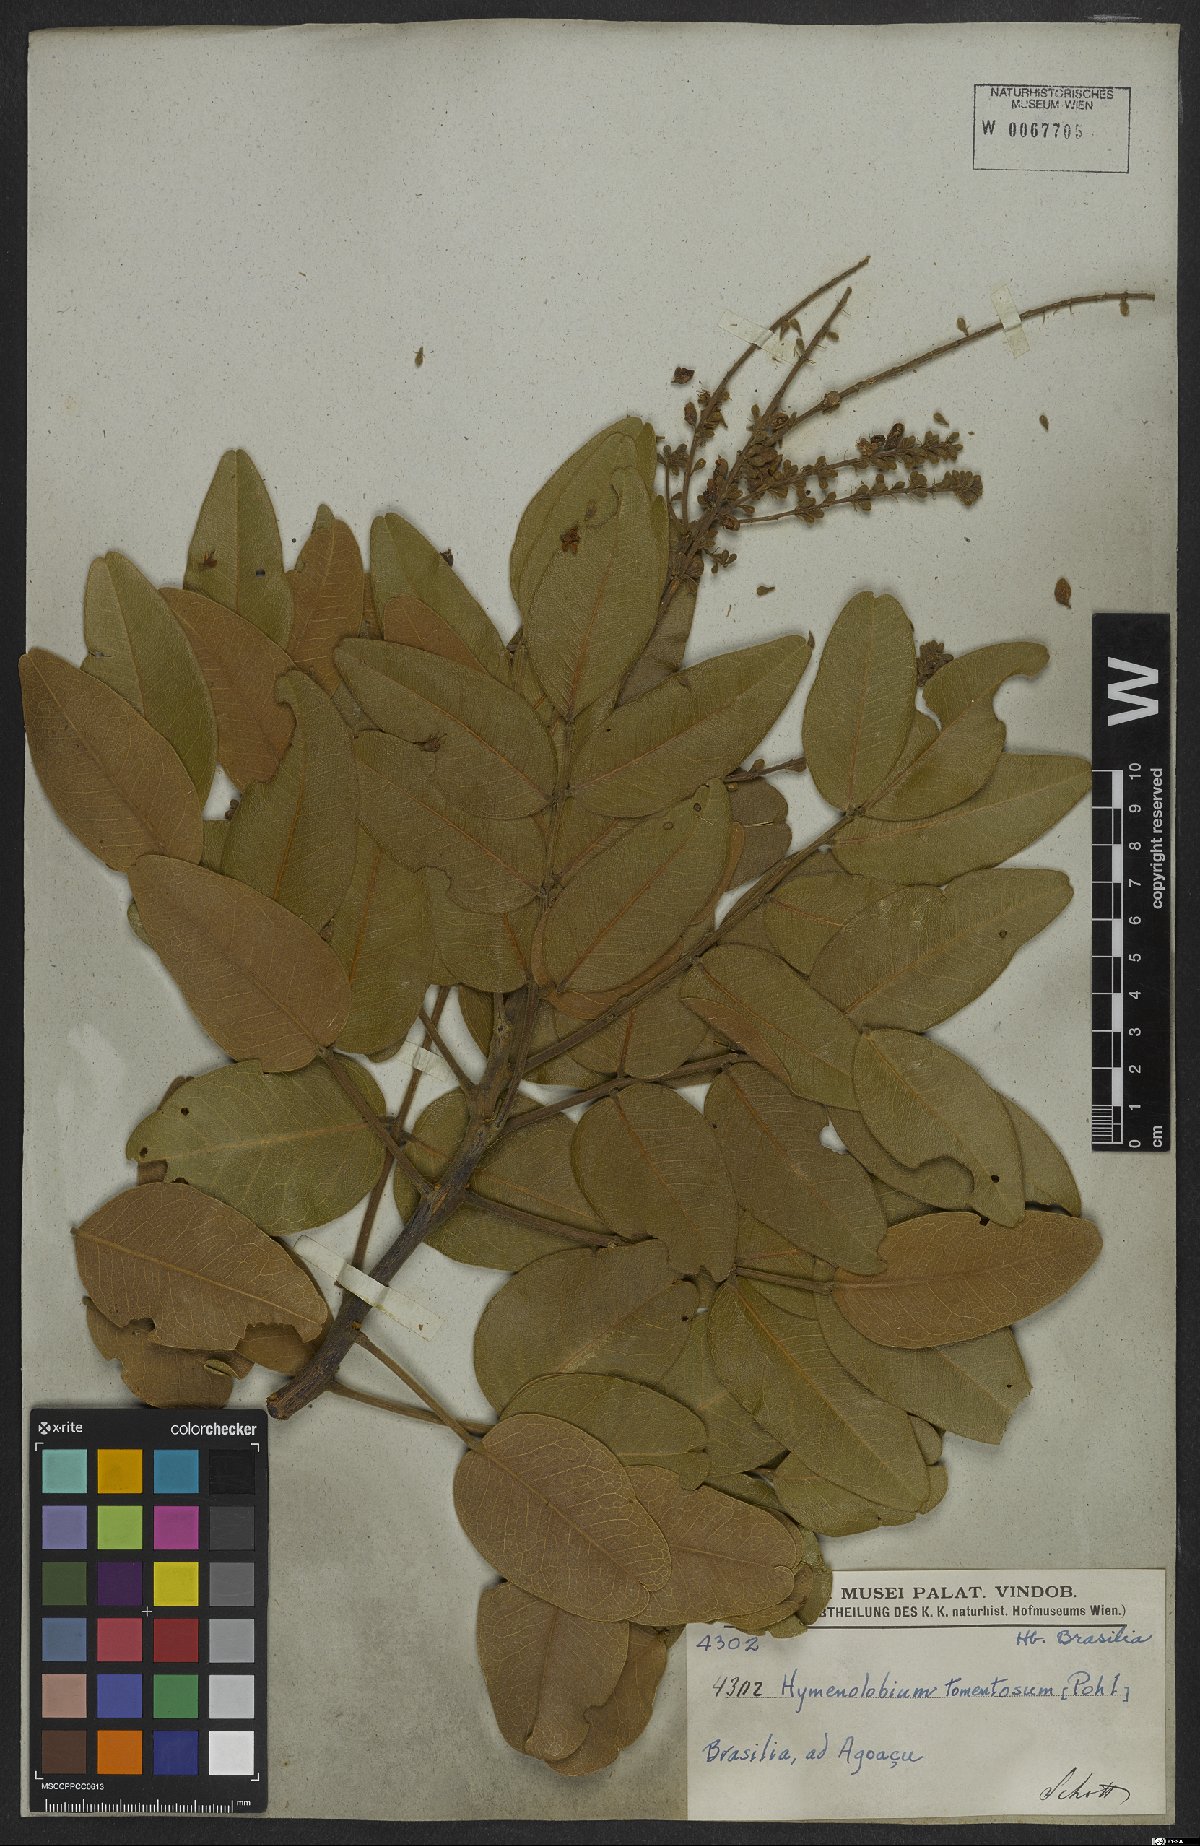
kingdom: Plantae
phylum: Tracheophyta
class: Magnoliopsida
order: Fabales
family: Fabaceae
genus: Hymenolobium
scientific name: Hymenolobium
